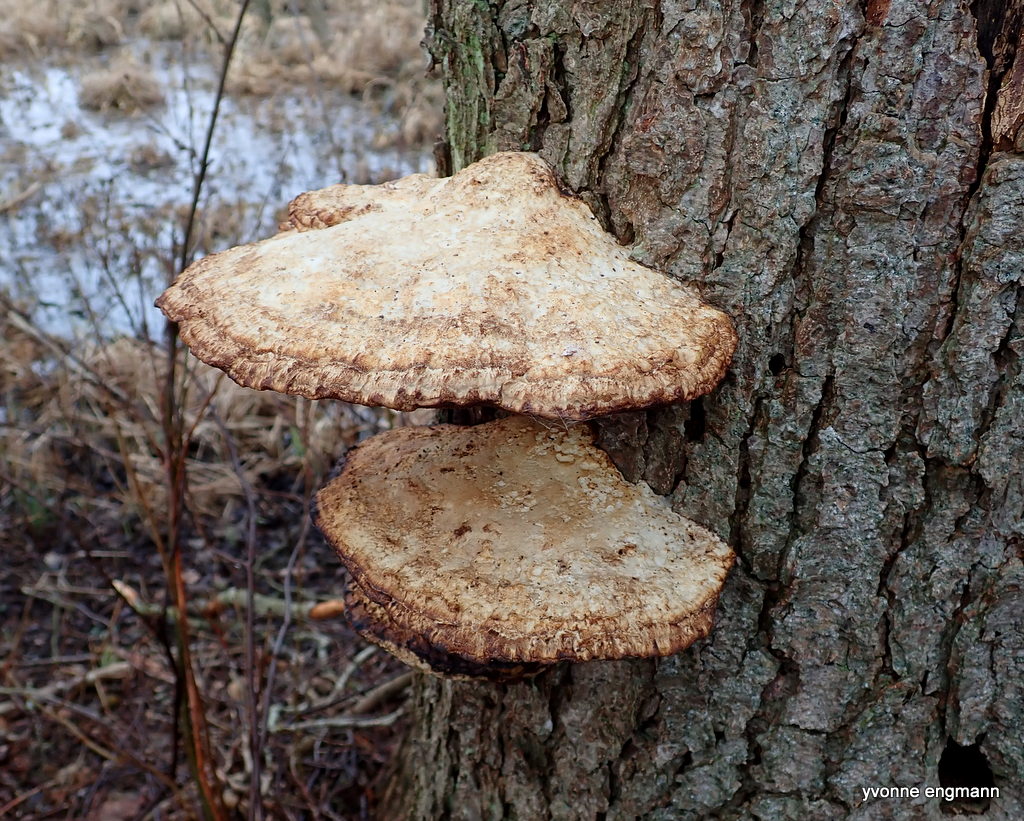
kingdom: Fungi
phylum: Basidiomycota
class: Agaricomycetes
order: Polyporales
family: Polyporaceae
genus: Daedaleopsis
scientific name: Daedaleopsis confragosa
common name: rødmende læderporesvamp
